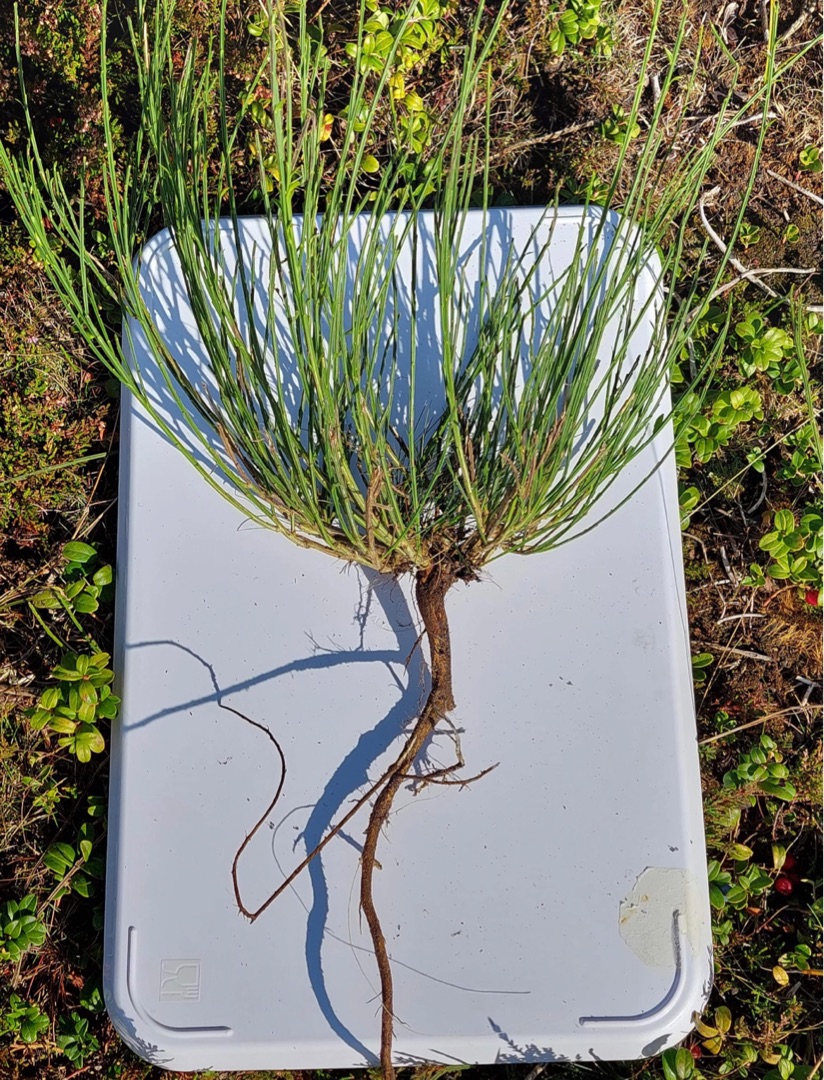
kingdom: Plantae
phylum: Tracheophyta
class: Magnoliopsida
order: Fabales
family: Fabaceae
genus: Cytisus
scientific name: Cytisus
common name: Gyvelslægten
